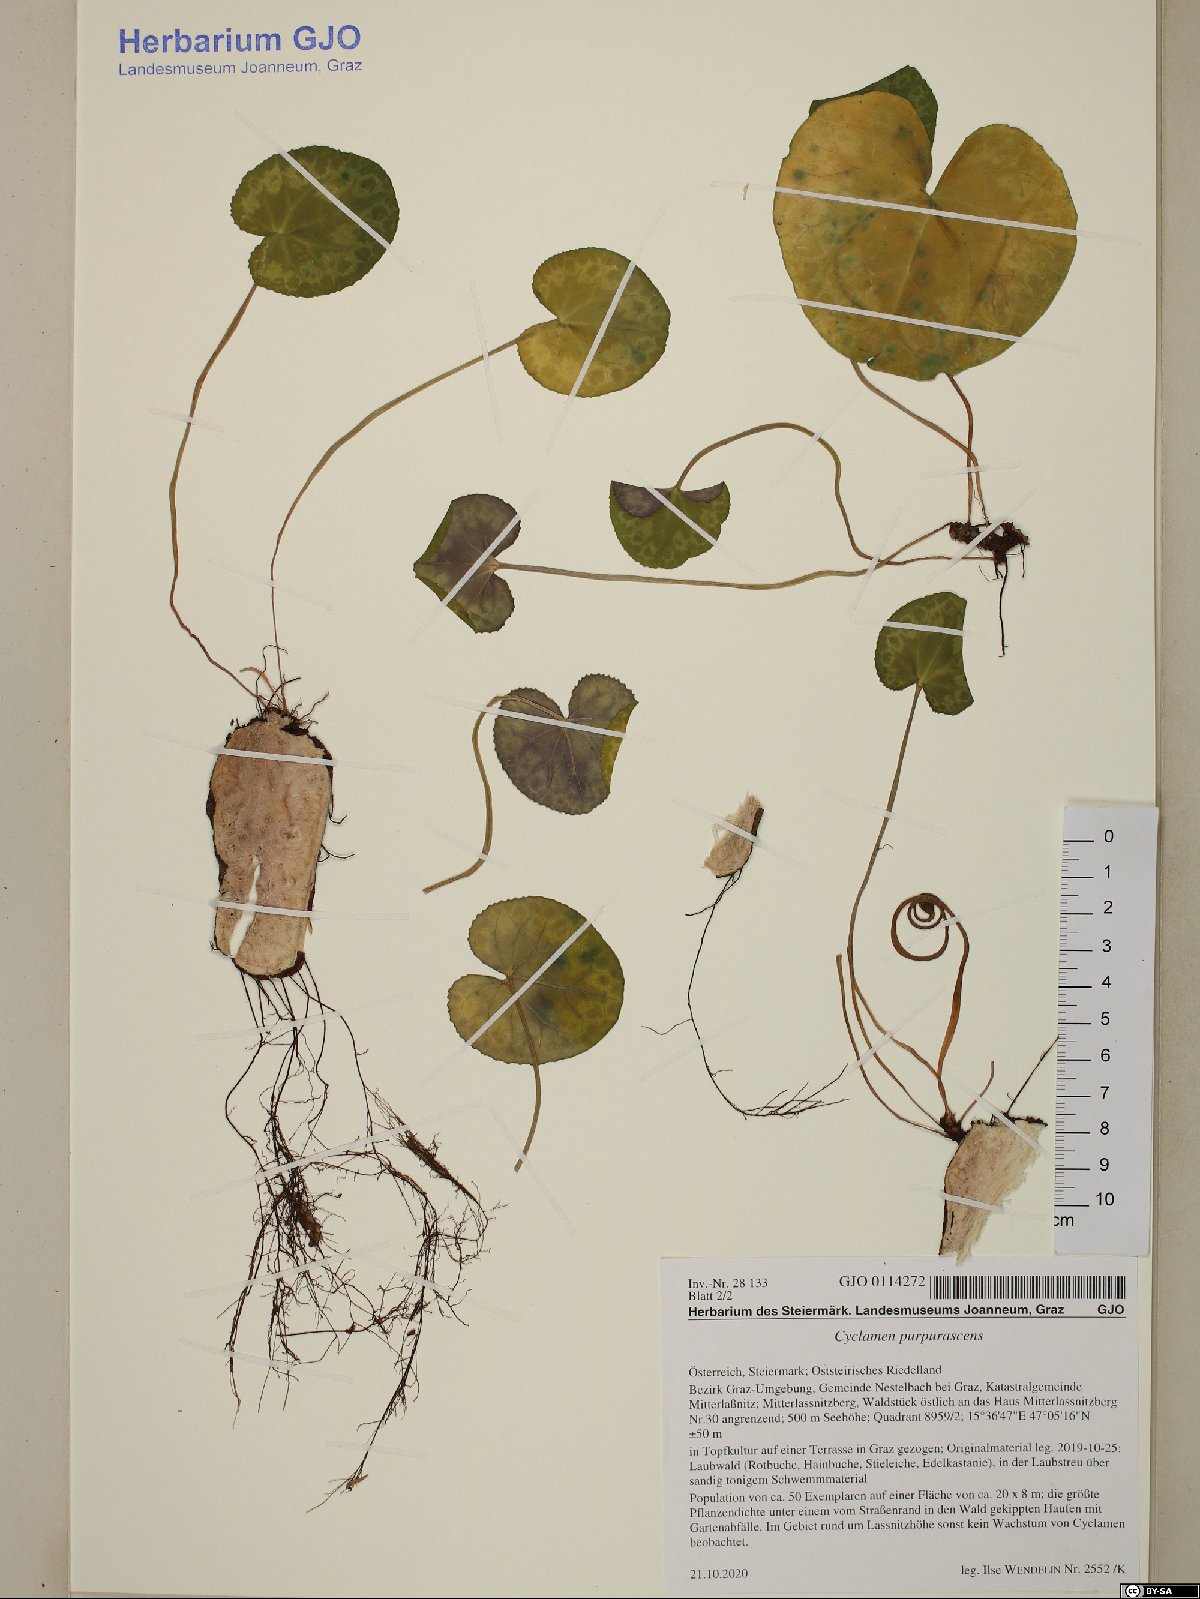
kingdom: Plantae
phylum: Tracheophyta
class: Magnoliopsida
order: Ericales
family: Primulaceae
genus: Cyclamen
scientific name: Cyclamen purpurascens
